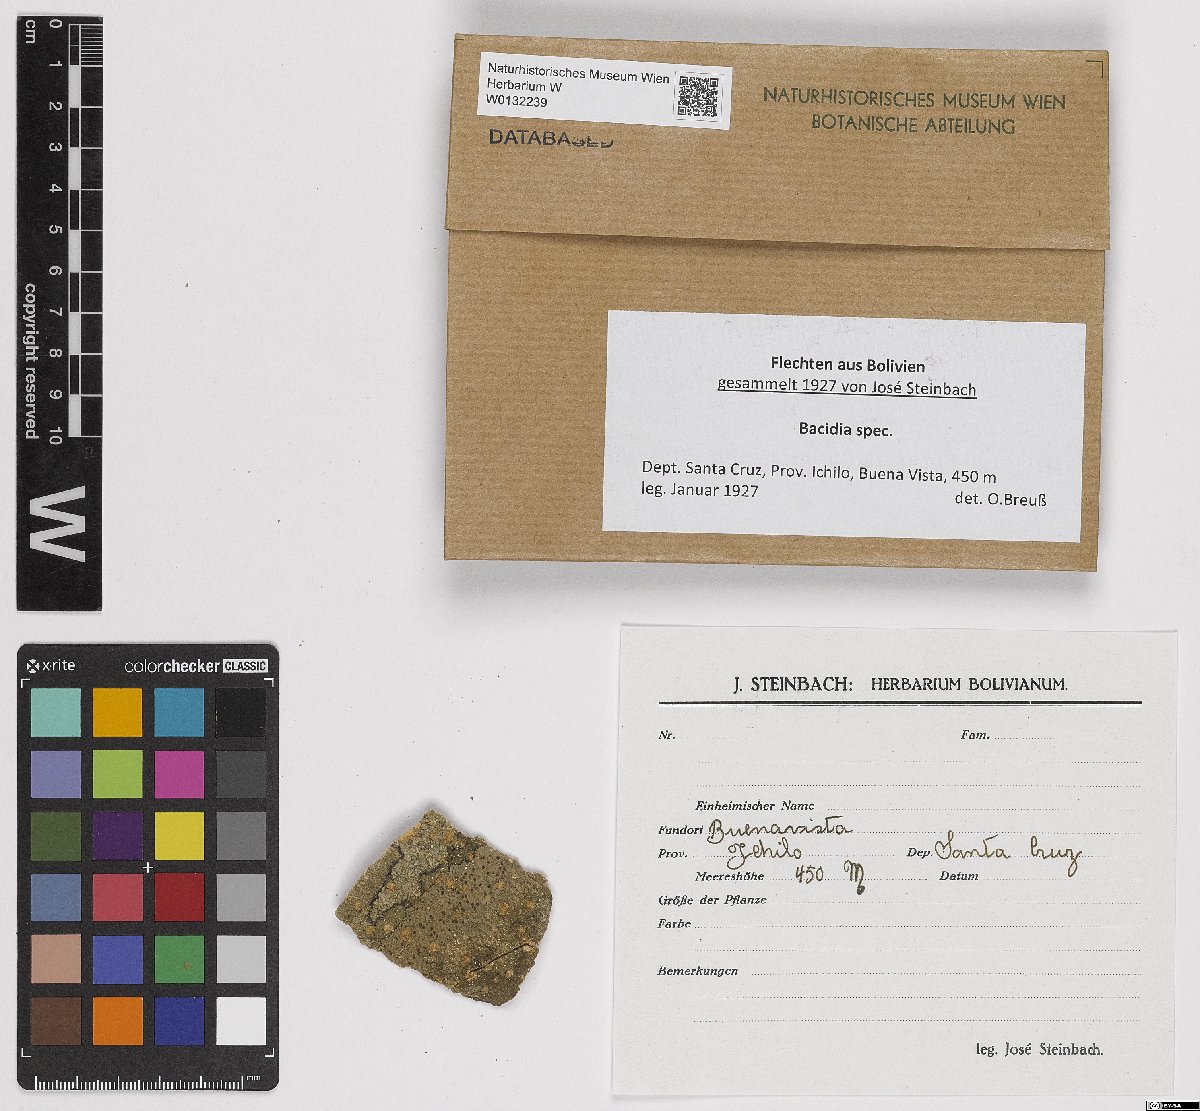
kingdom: Fungi
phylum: Ascomycota
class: Lecanoromycetes
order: Lecanorales
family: Ramalinaceae
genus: Bacidia
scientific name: Bacidia
